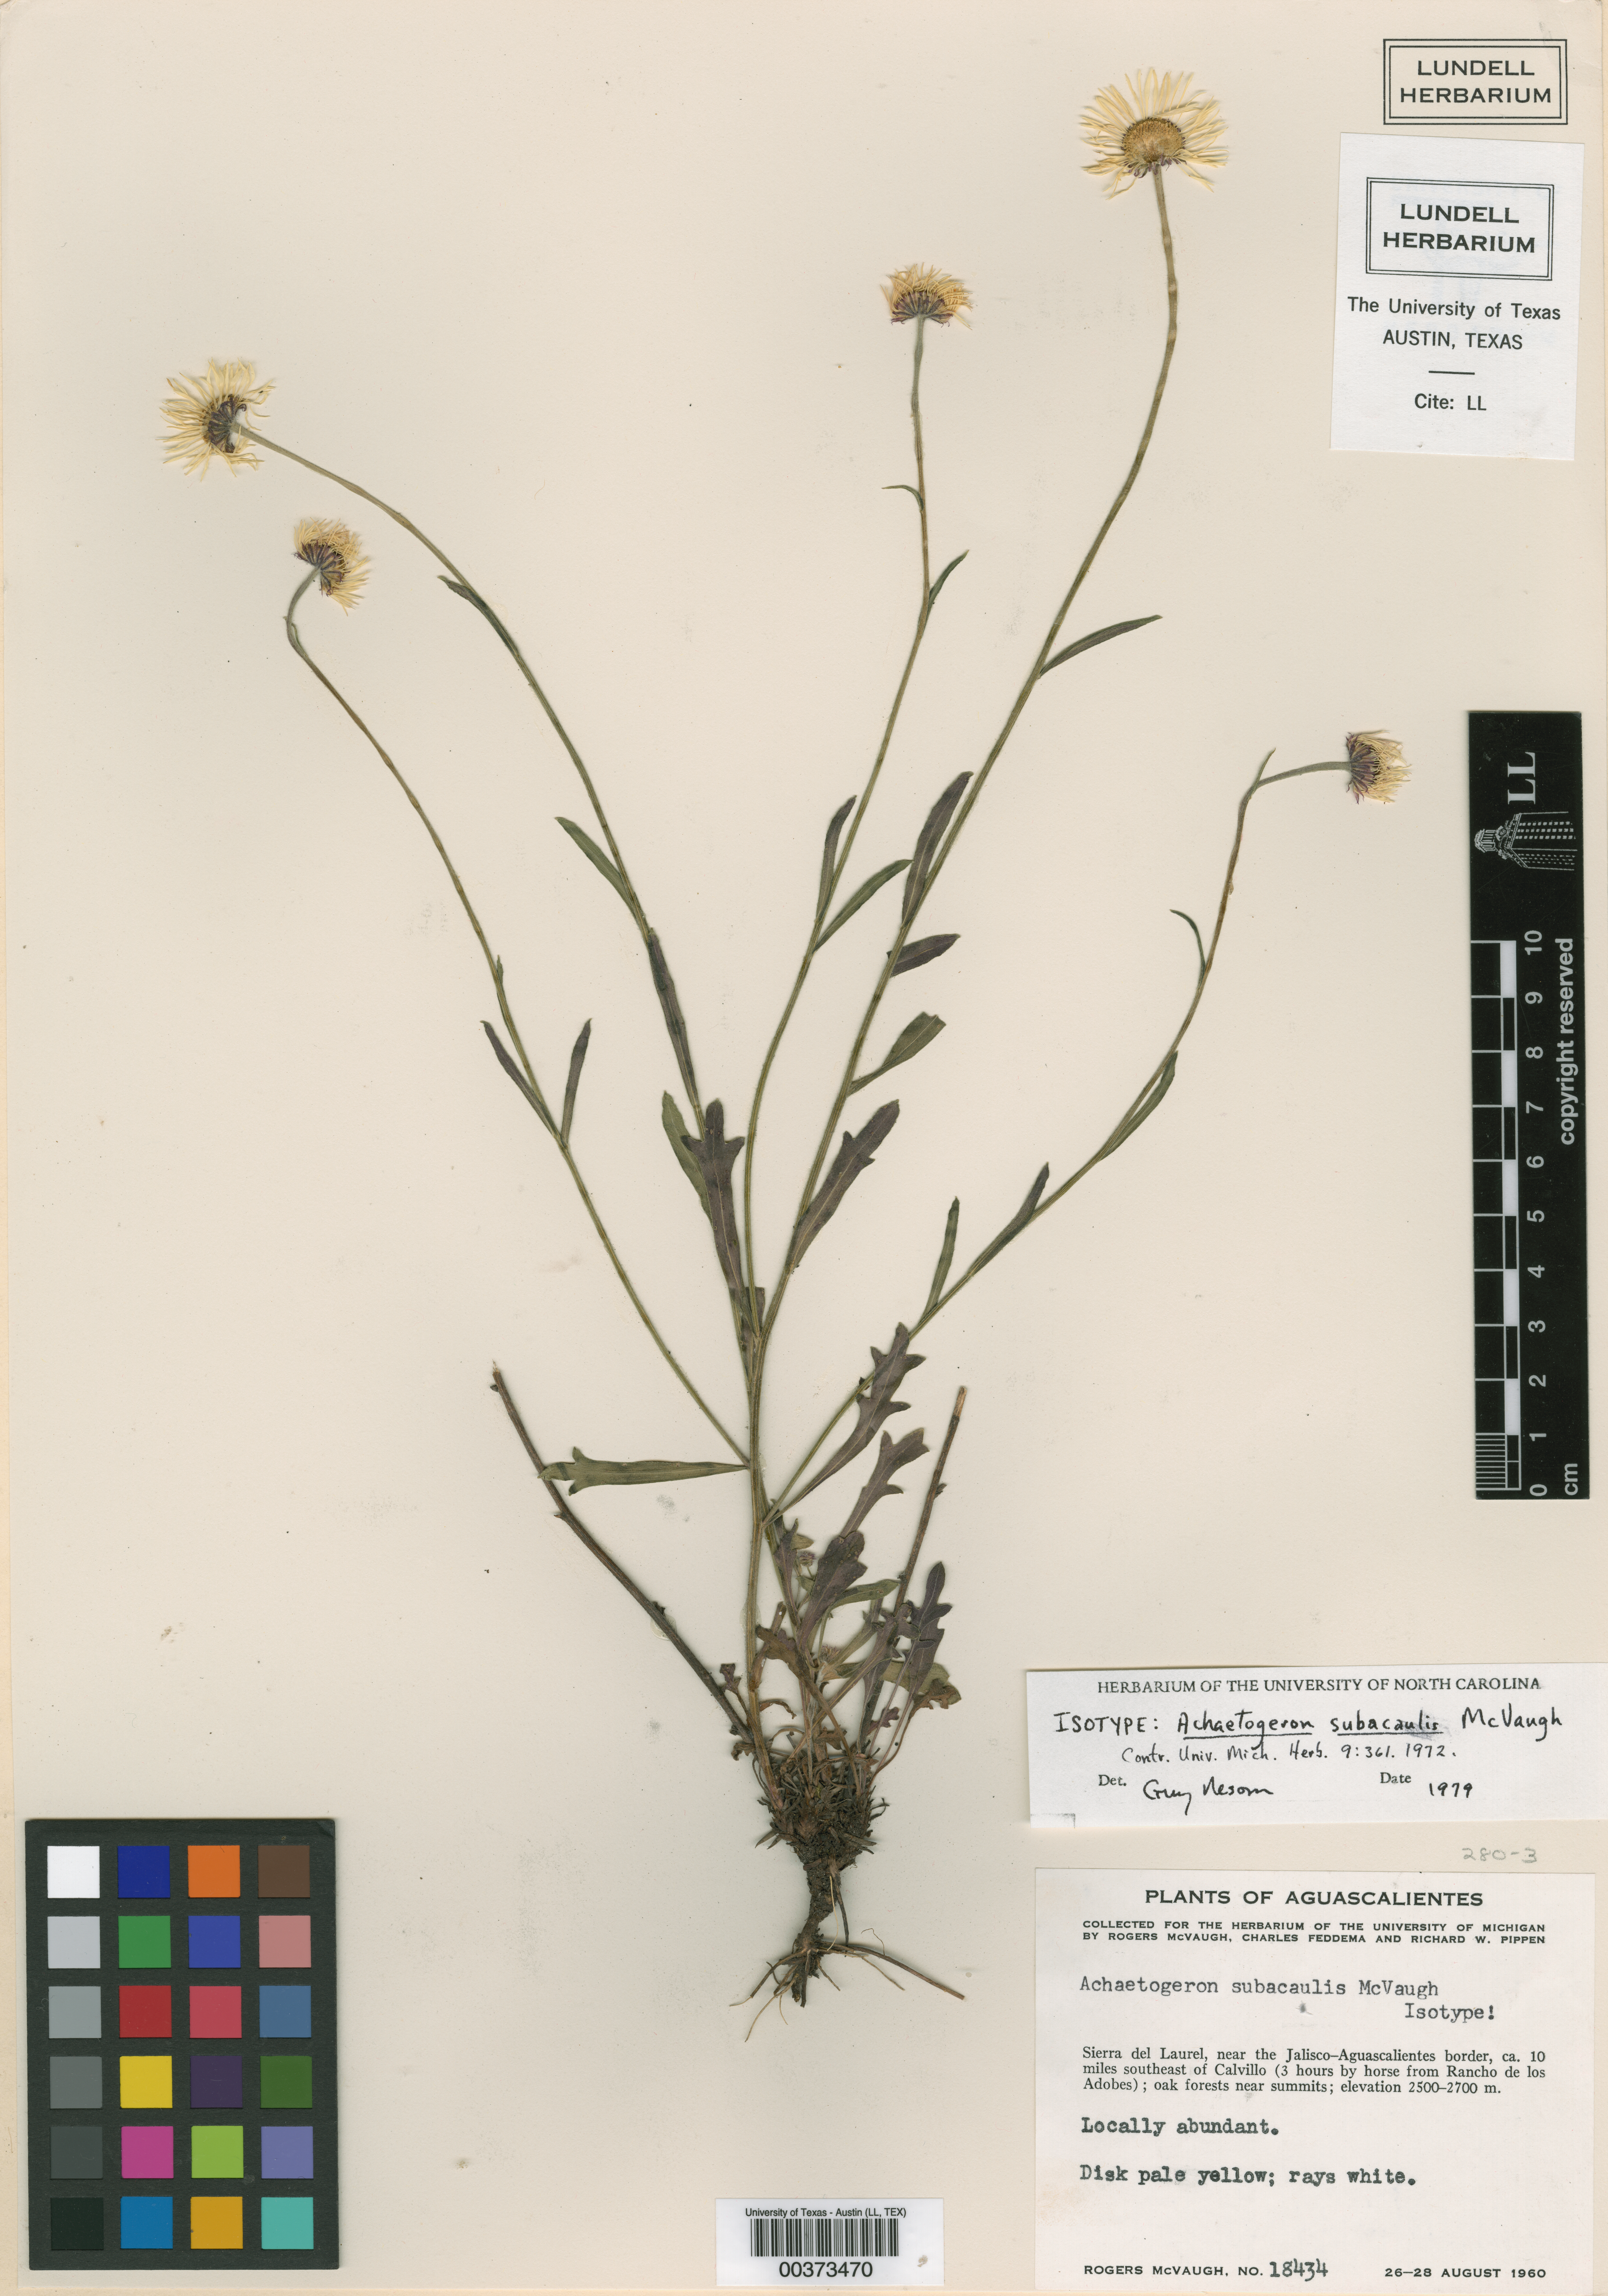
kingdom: Plantae
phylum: Tracheophyta
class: Magnoliopsida
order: Asterales
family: Asteraceae
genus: Erigeron
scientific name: Erigeron subacaulis
